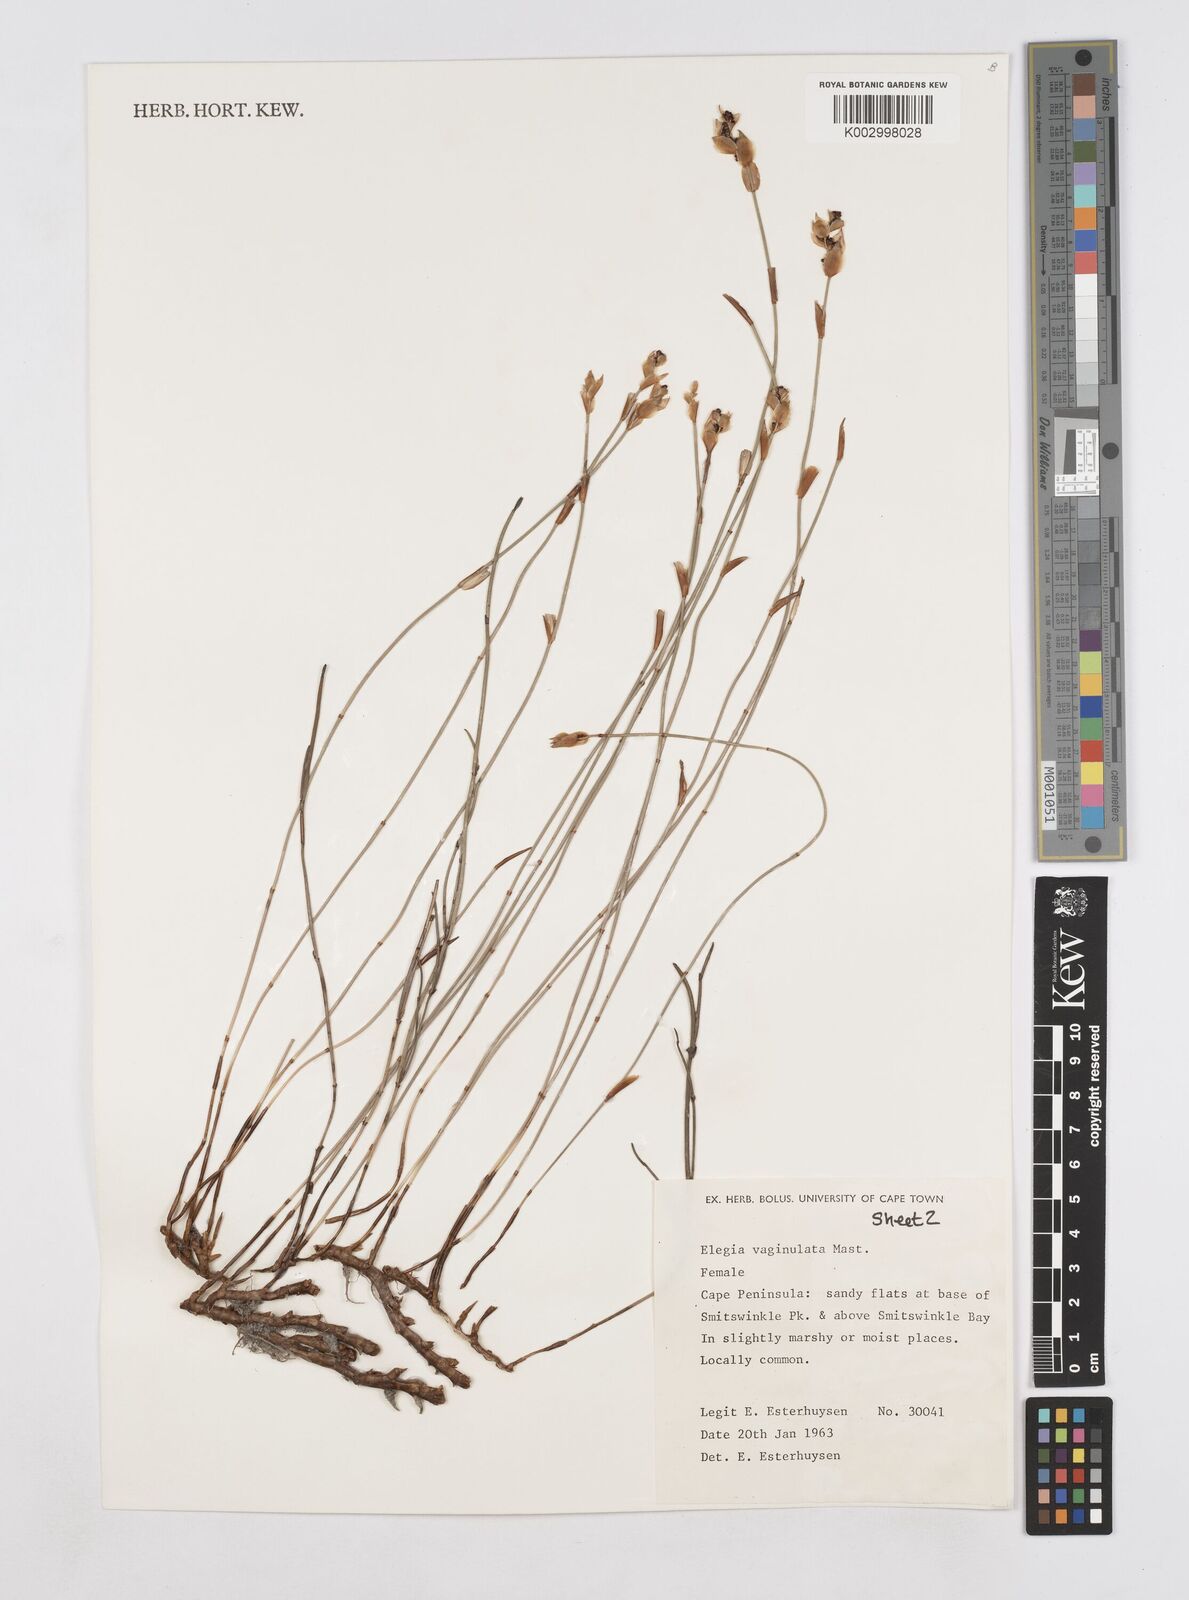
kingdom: Plantae
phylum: Tracheophyta
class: Liliopsida
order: Poales
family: Restionaceae
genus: Elegia
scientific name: Elegia vaginulata
